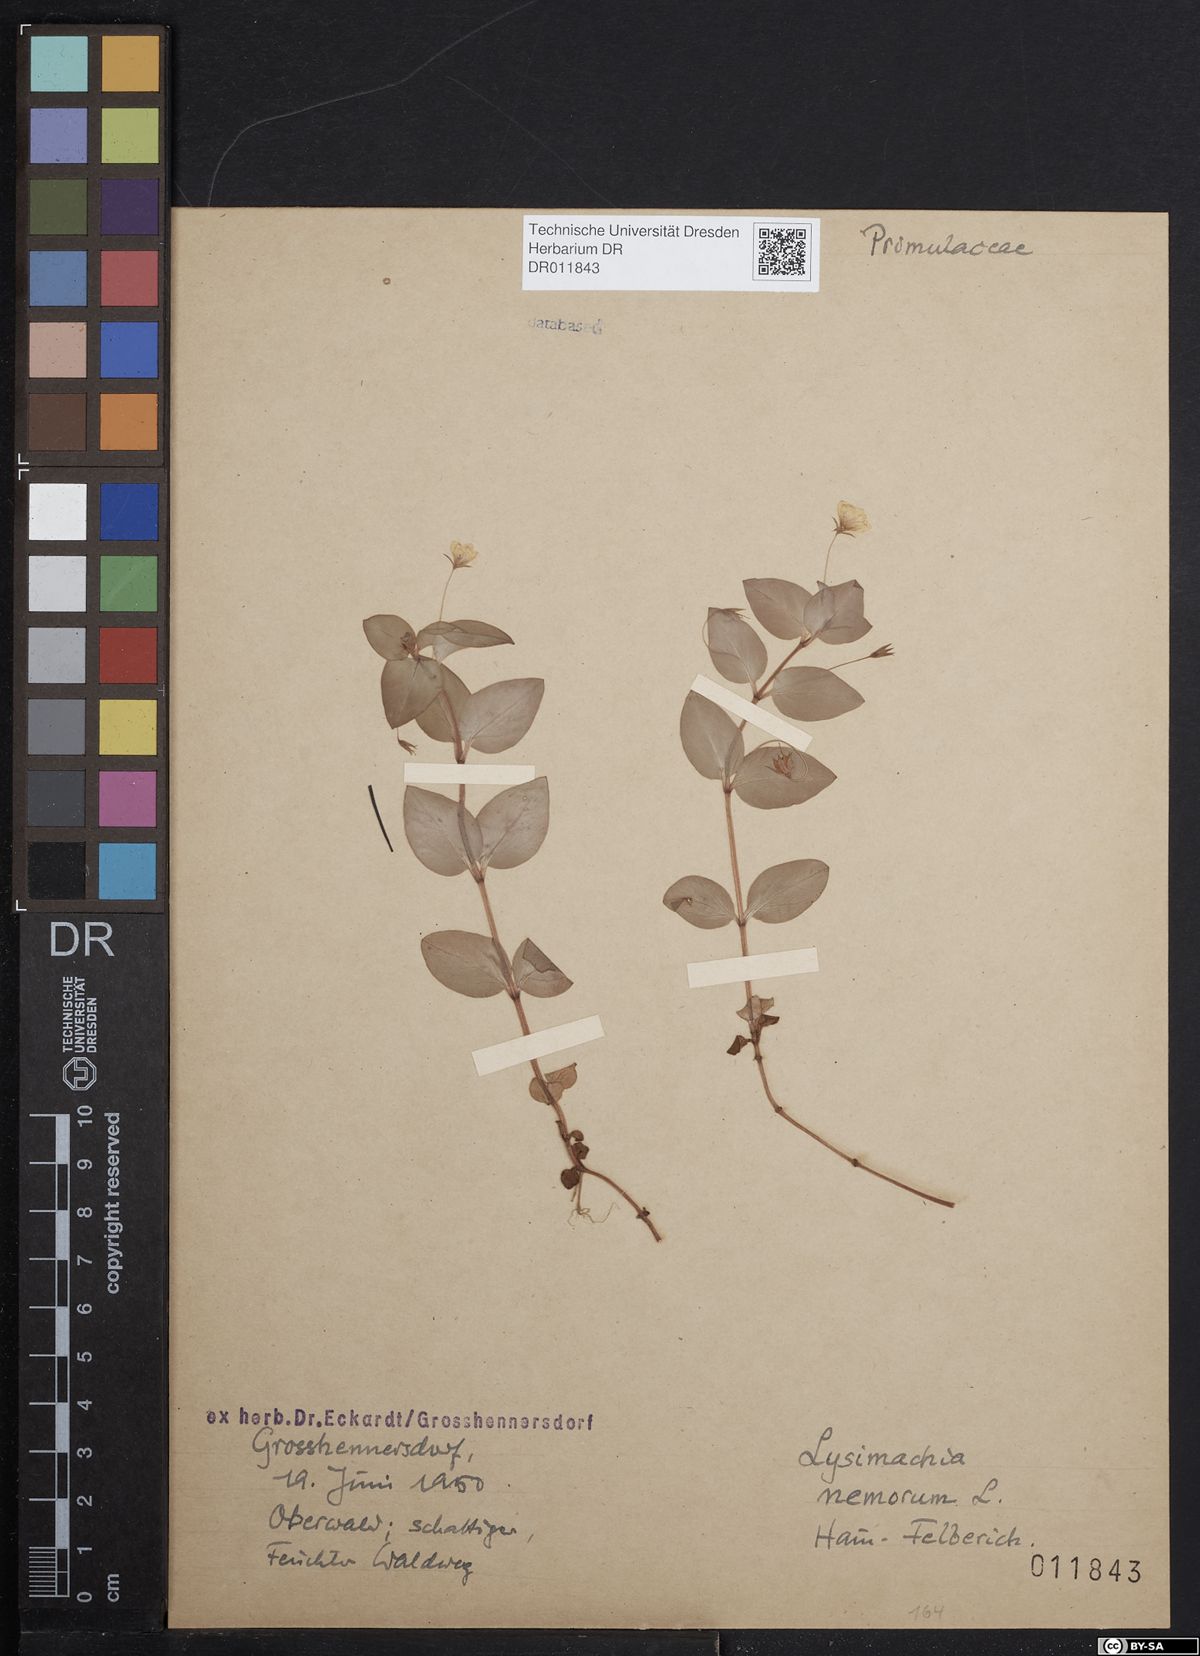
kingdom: Plantae
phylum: Tracheophyta
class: Magnoliopsida
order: Ericales
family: Primulaceae
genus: Lysimachia
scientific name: Lysimachia nemorum
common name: Yellow pimpernel
